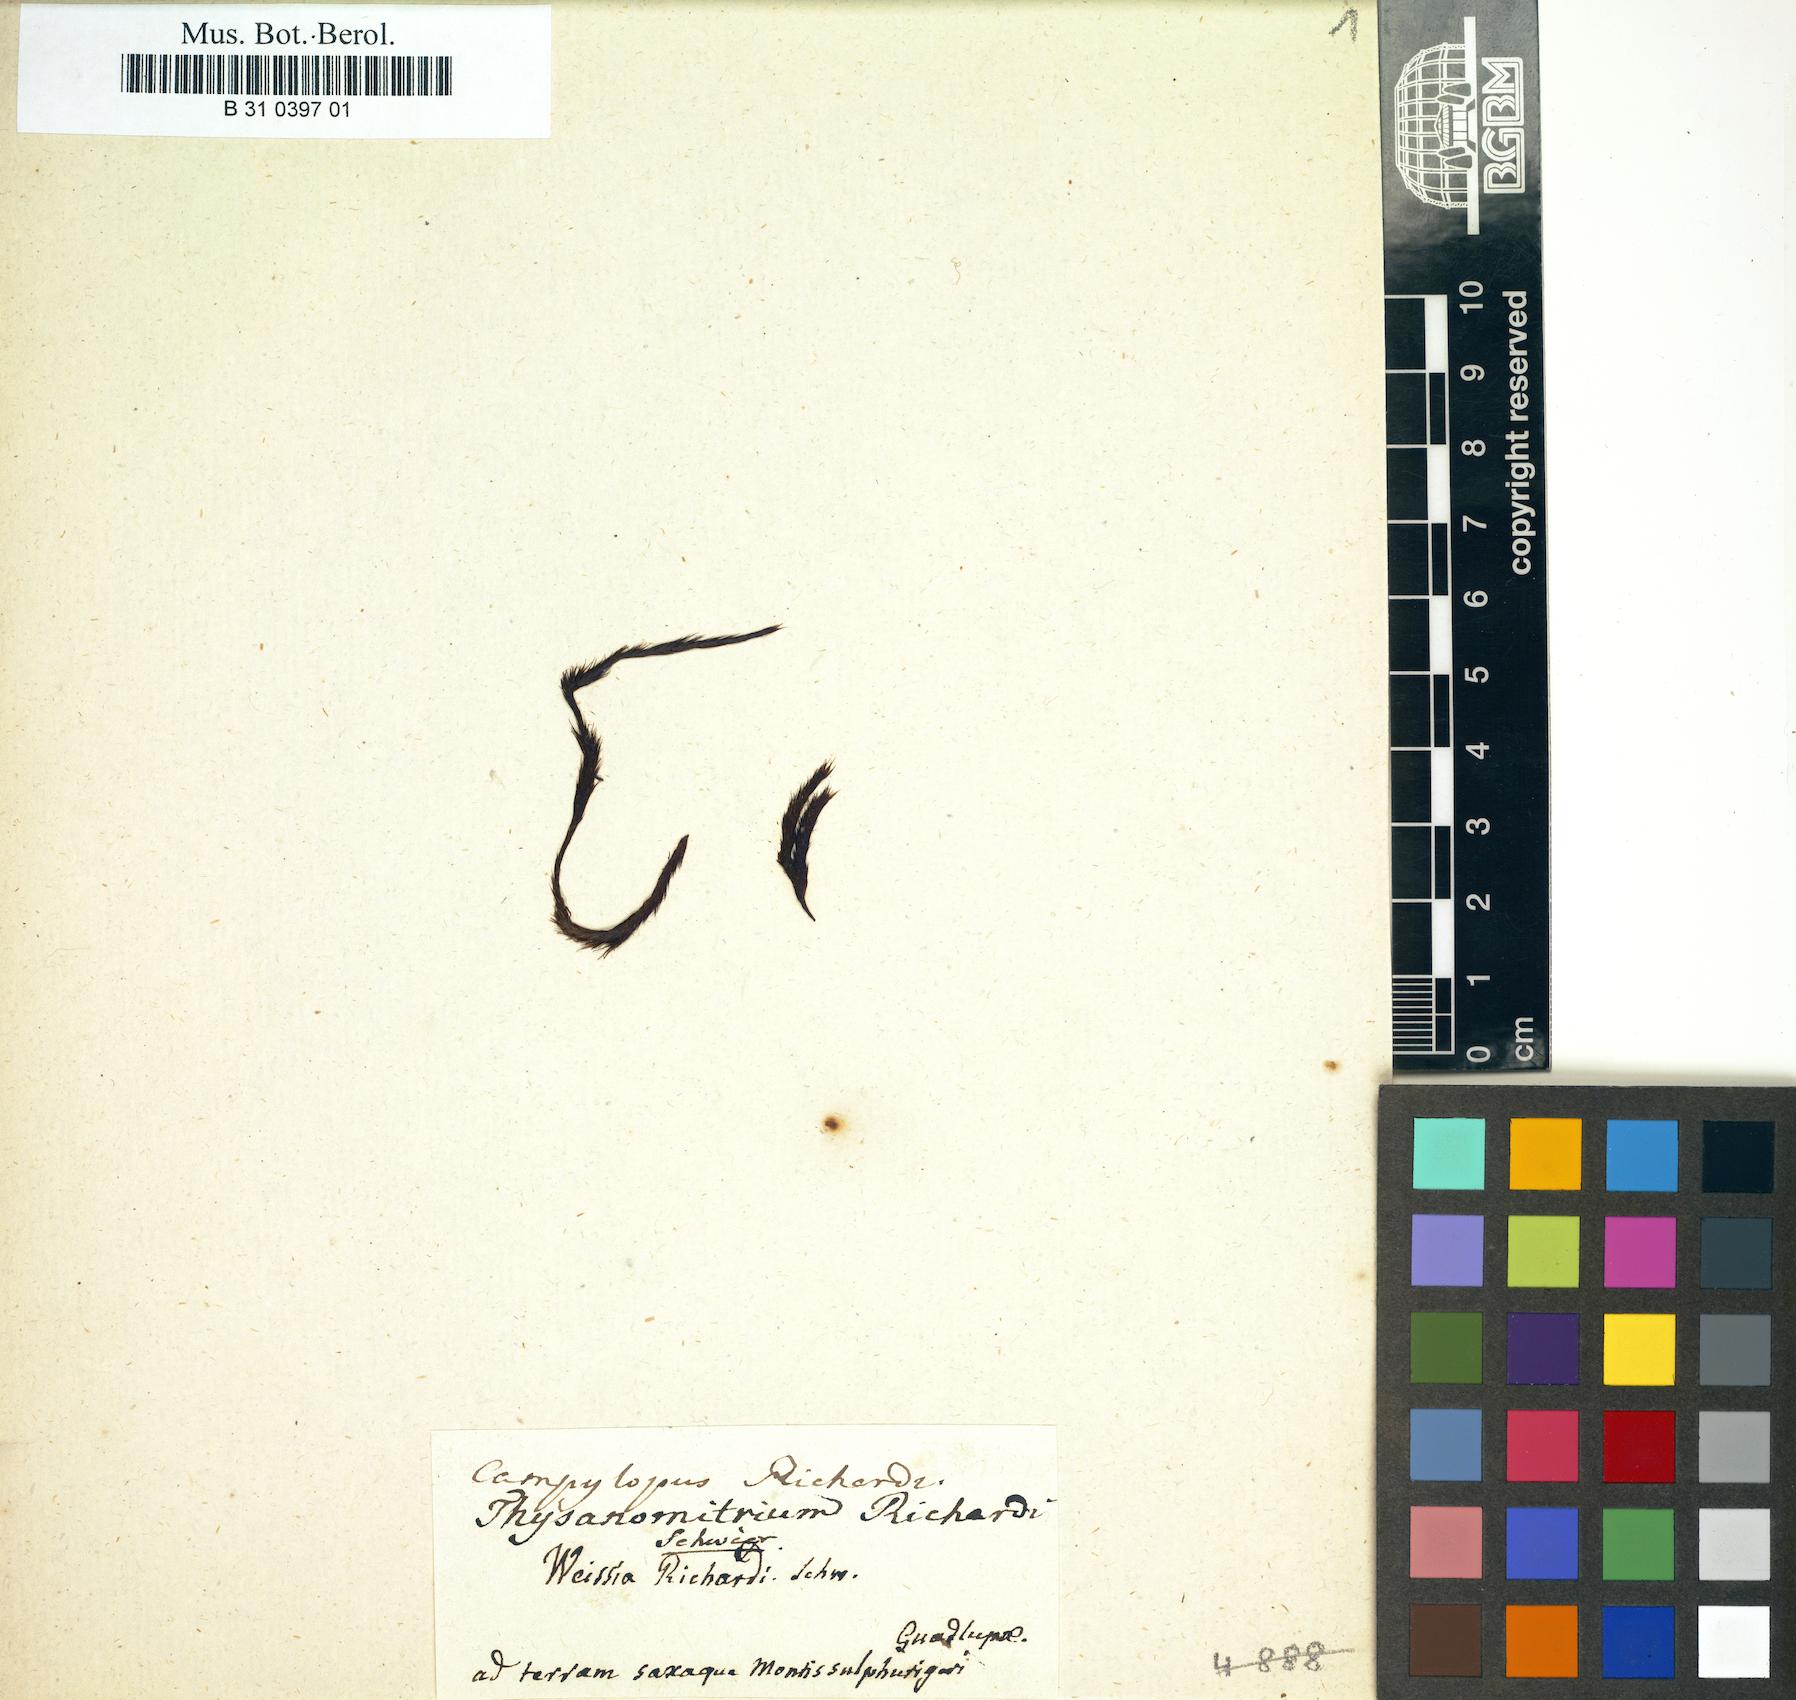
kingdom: Plantae
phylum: Bryophyta
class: Bryopsida
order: Dicranales
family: Leucobryaceae
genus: Campylopus
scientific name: Campylopus richardii
